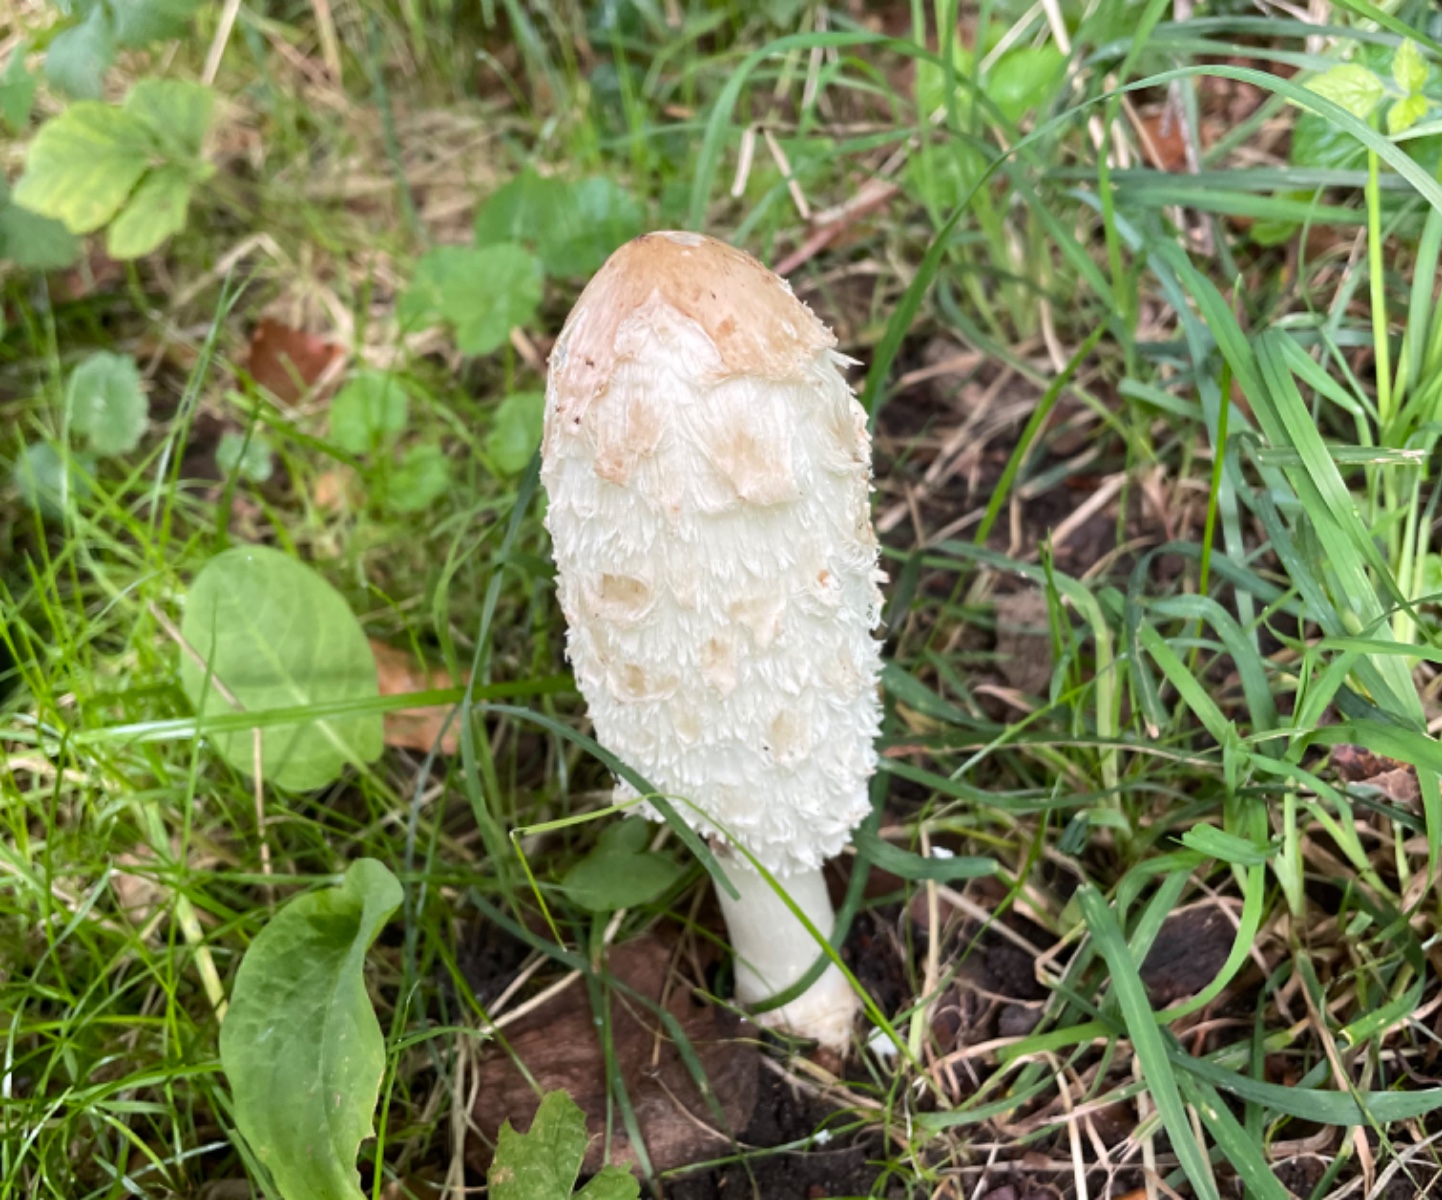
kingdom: Fungi
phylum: Basidiomycota
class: Agaricomycetes
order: Agaricales
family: Agaricaceae
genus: Coprinus
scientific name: Coprinus comatus
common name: stor parykhat
